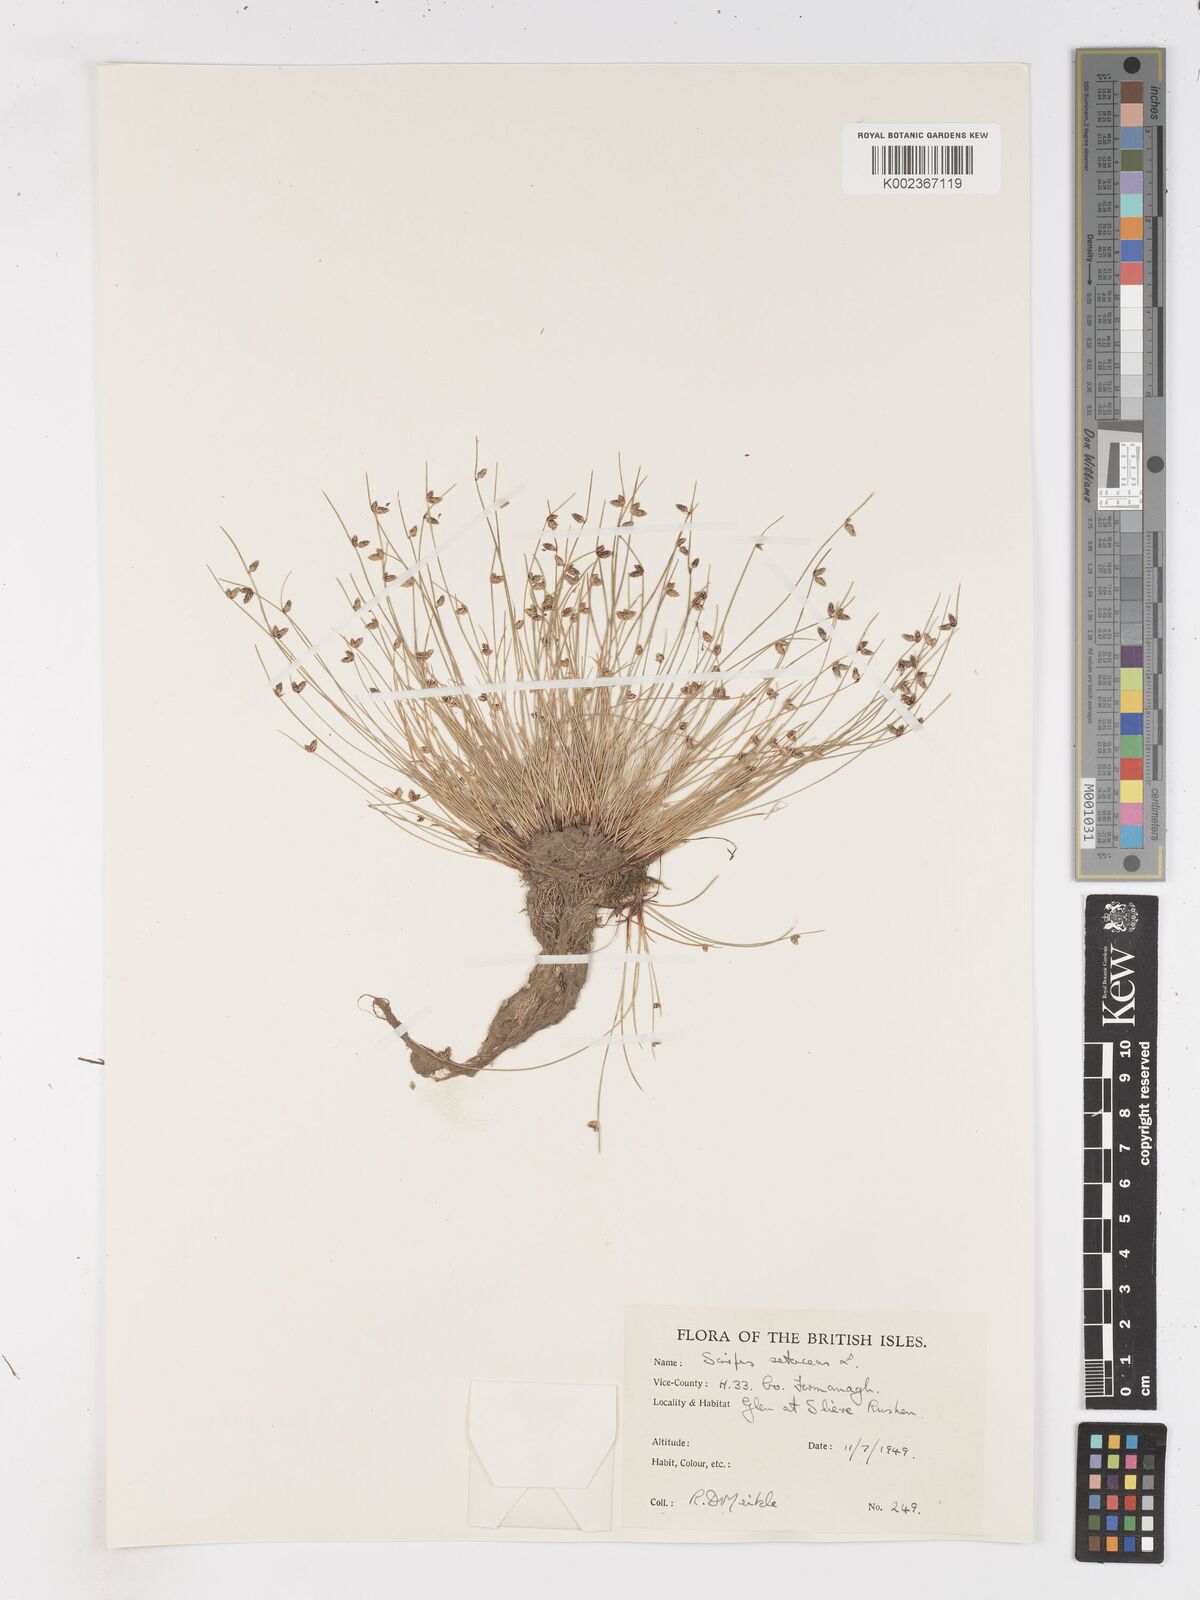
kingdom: Plantae
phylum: Tracheophyta
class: Liliopsida
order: Poales
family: Cyperaceae
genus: Isolepis
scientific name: Isolepis setacea
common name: Bristle club-rush
